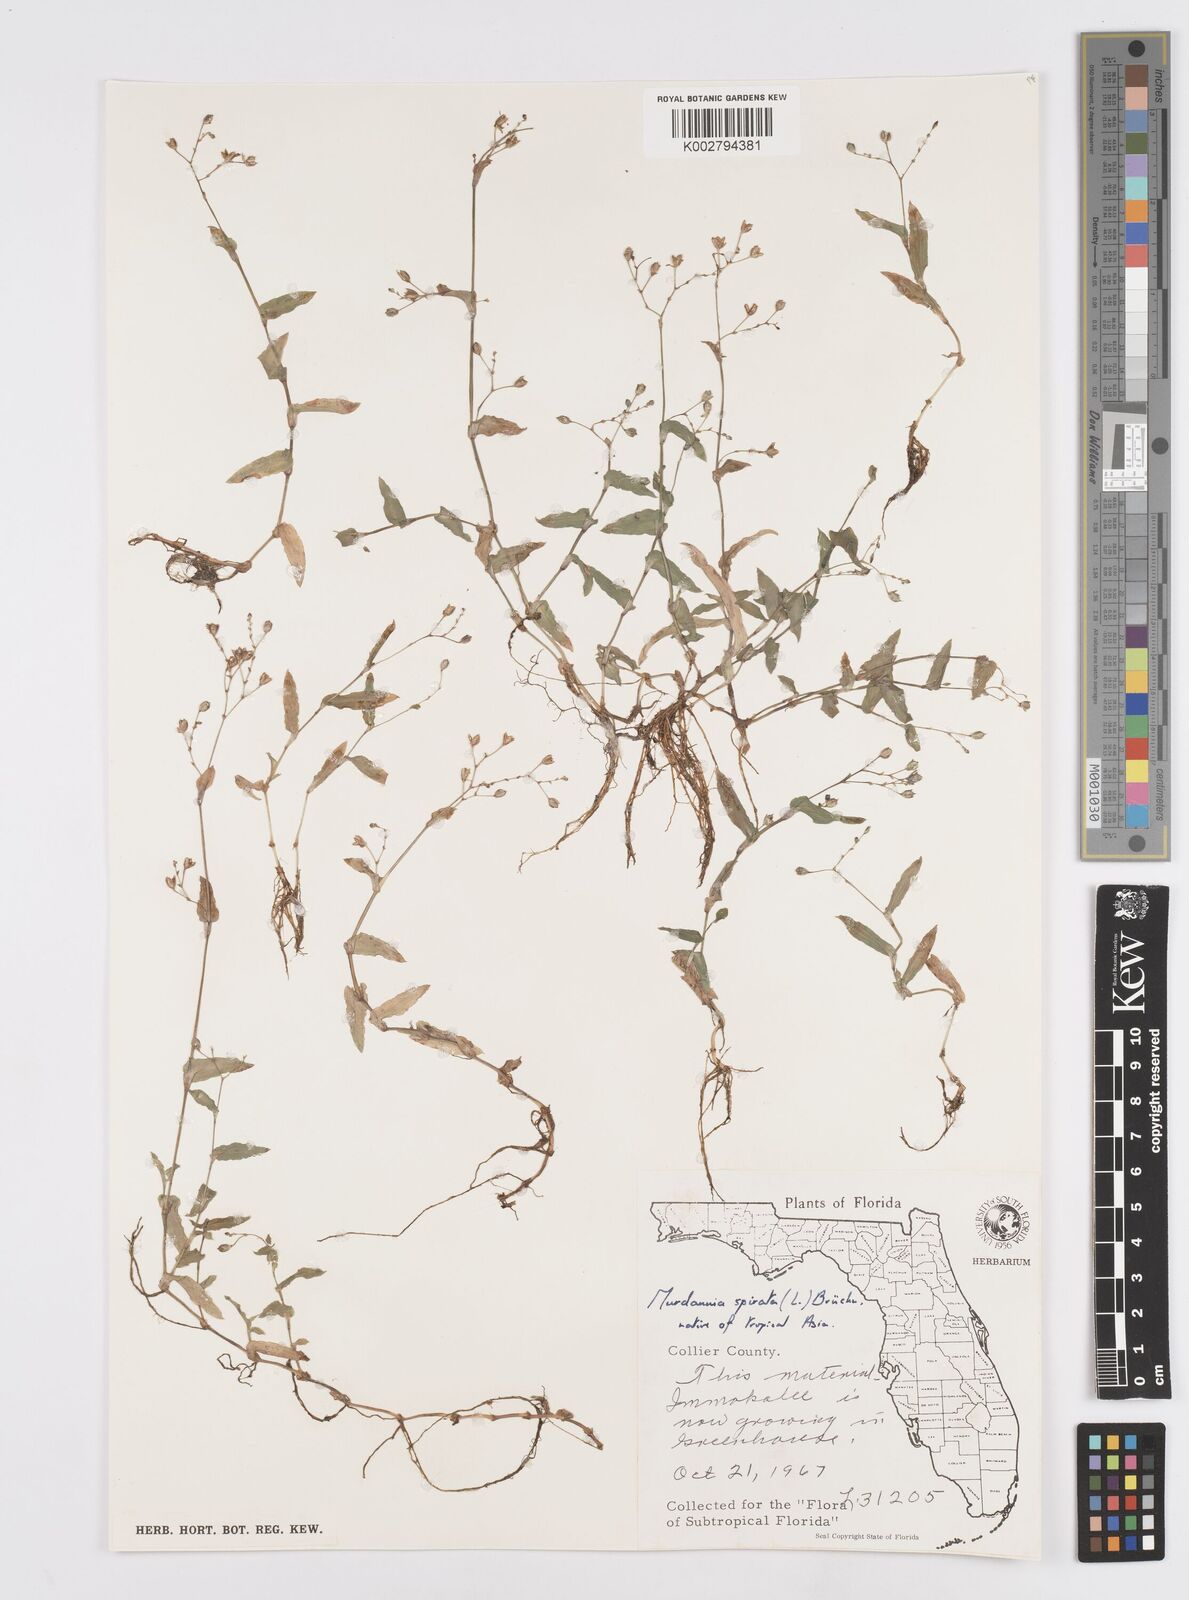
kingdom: Plantae
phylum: Tracheophyta
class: Liliopsida
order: Commelinales
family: Commelinaceae
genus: Murdannia
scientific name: Murdannia spirata
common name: Asiatic dewflower
